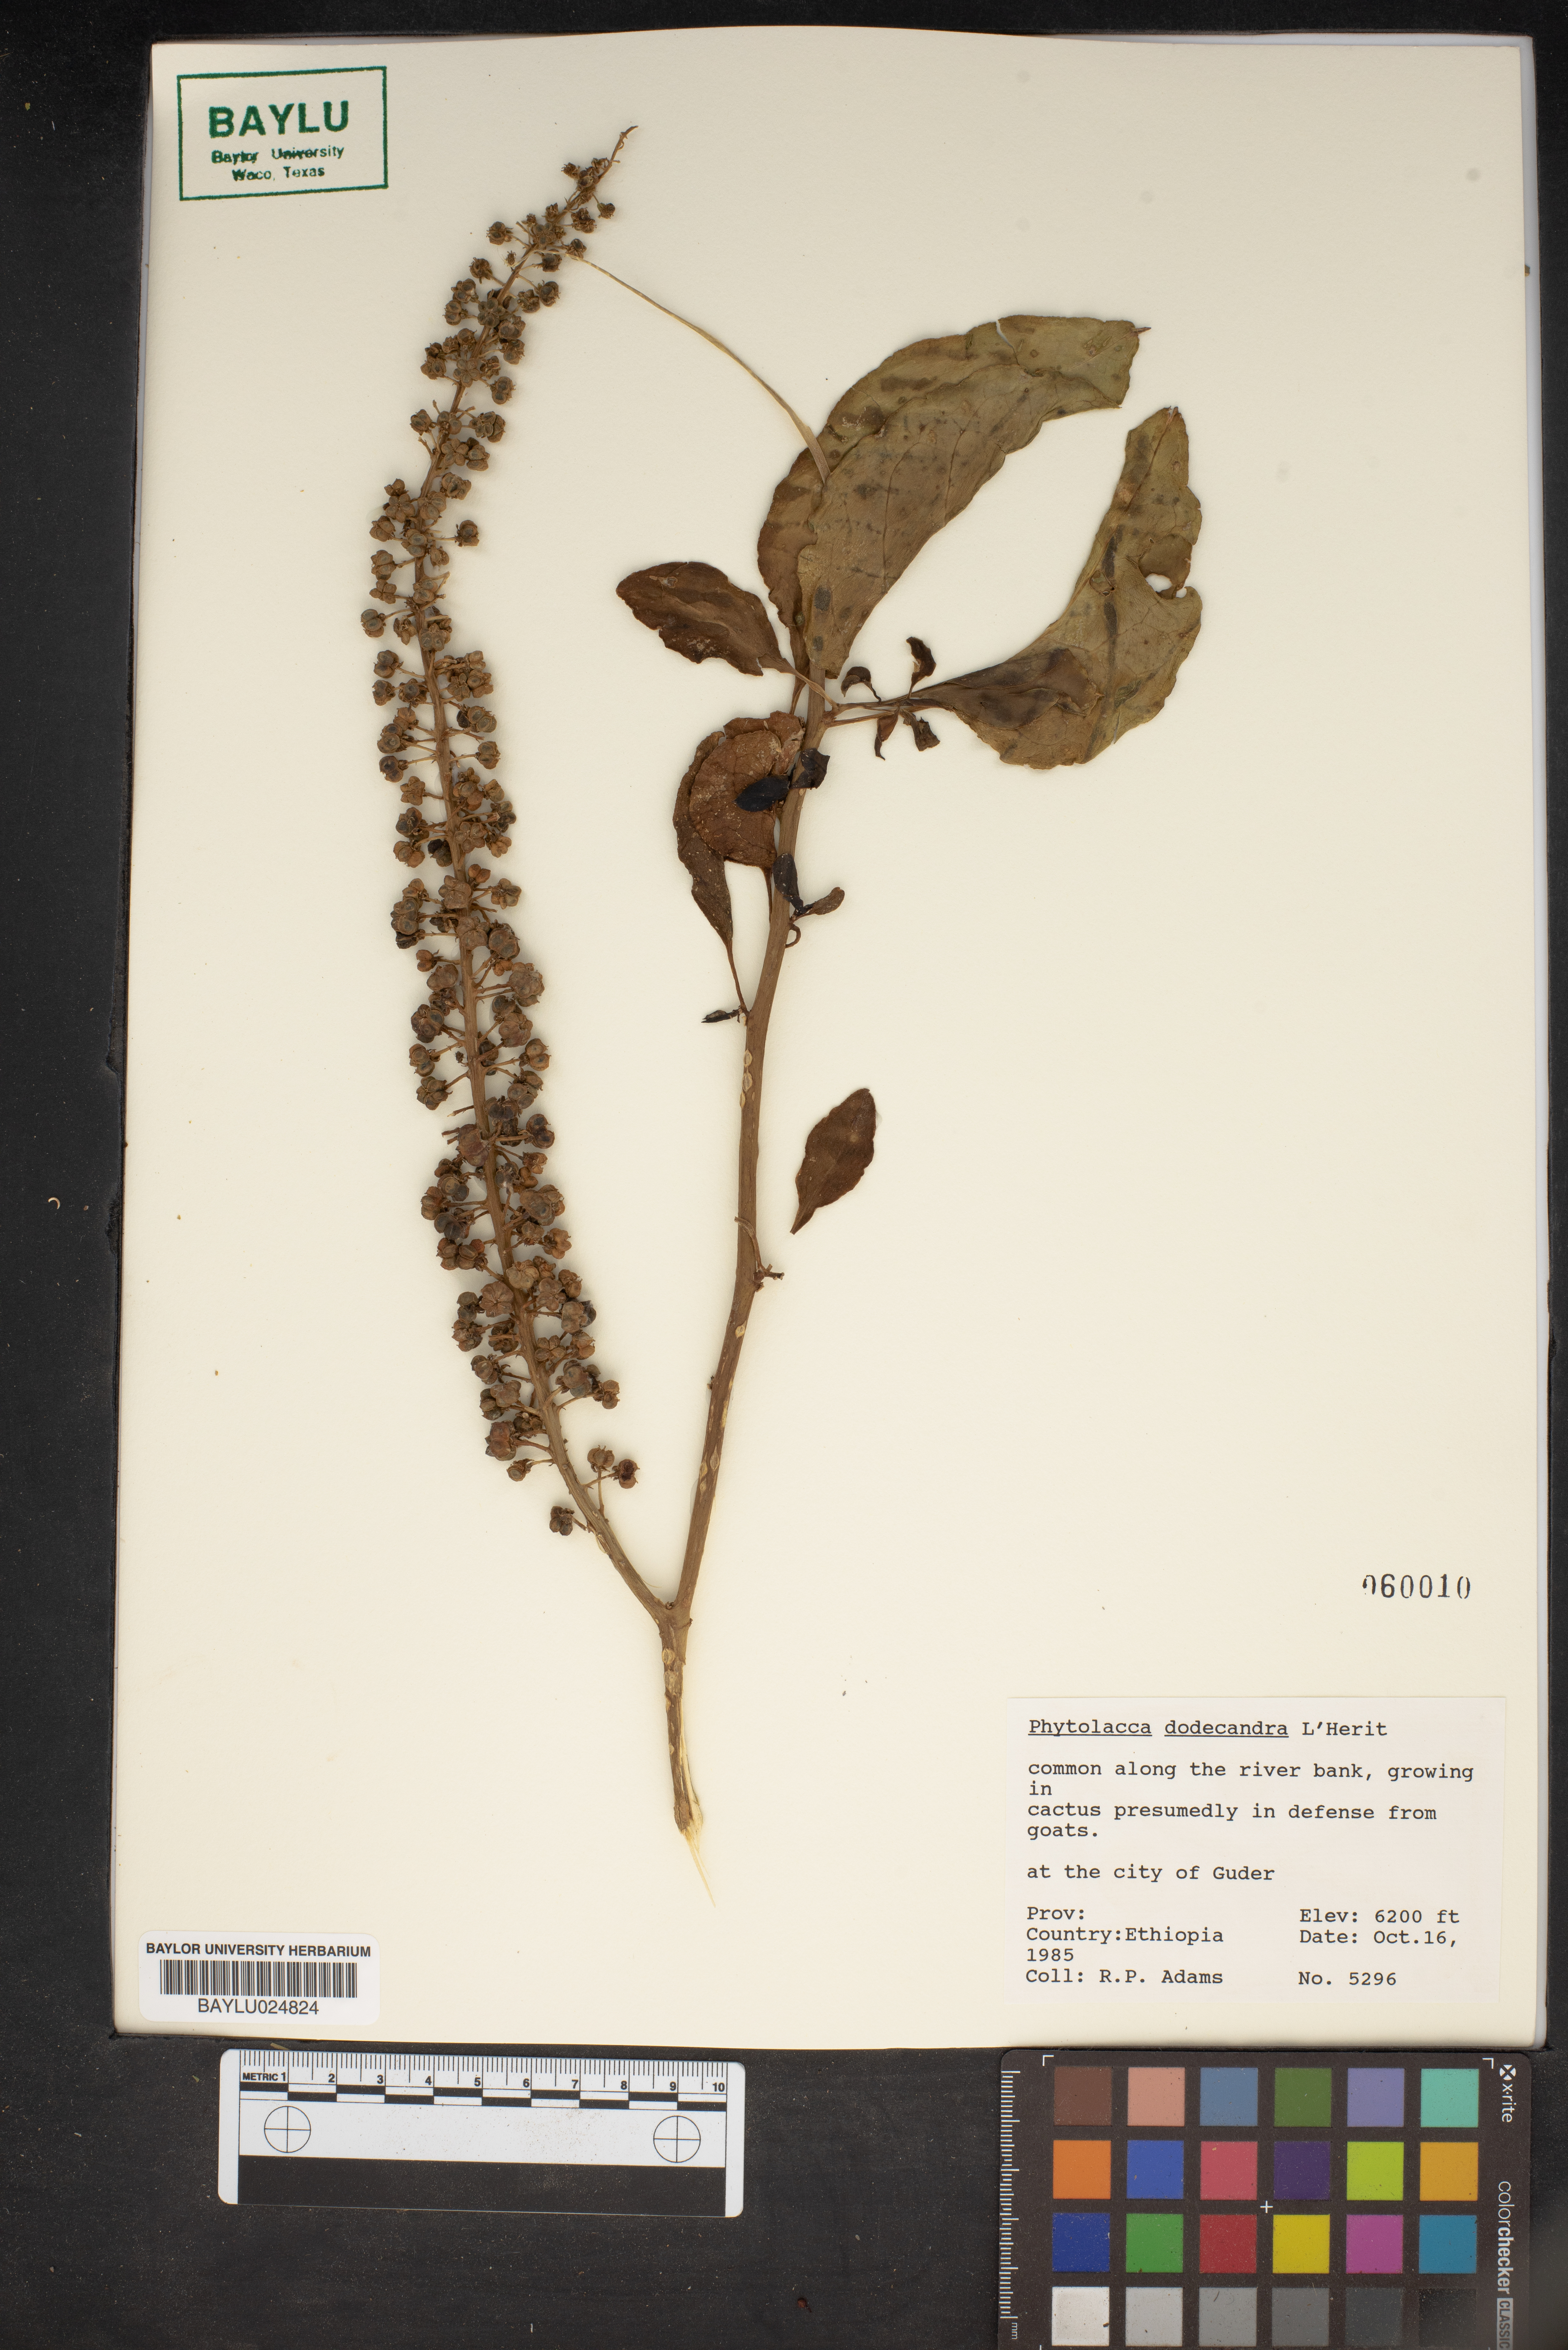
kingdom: Plantae
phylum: Tracheophyta
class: Magnoliopsida
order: Caryophyllales
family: Phytolaccaceae
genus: Phytolacca
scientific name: Phytolacca dodecandra
